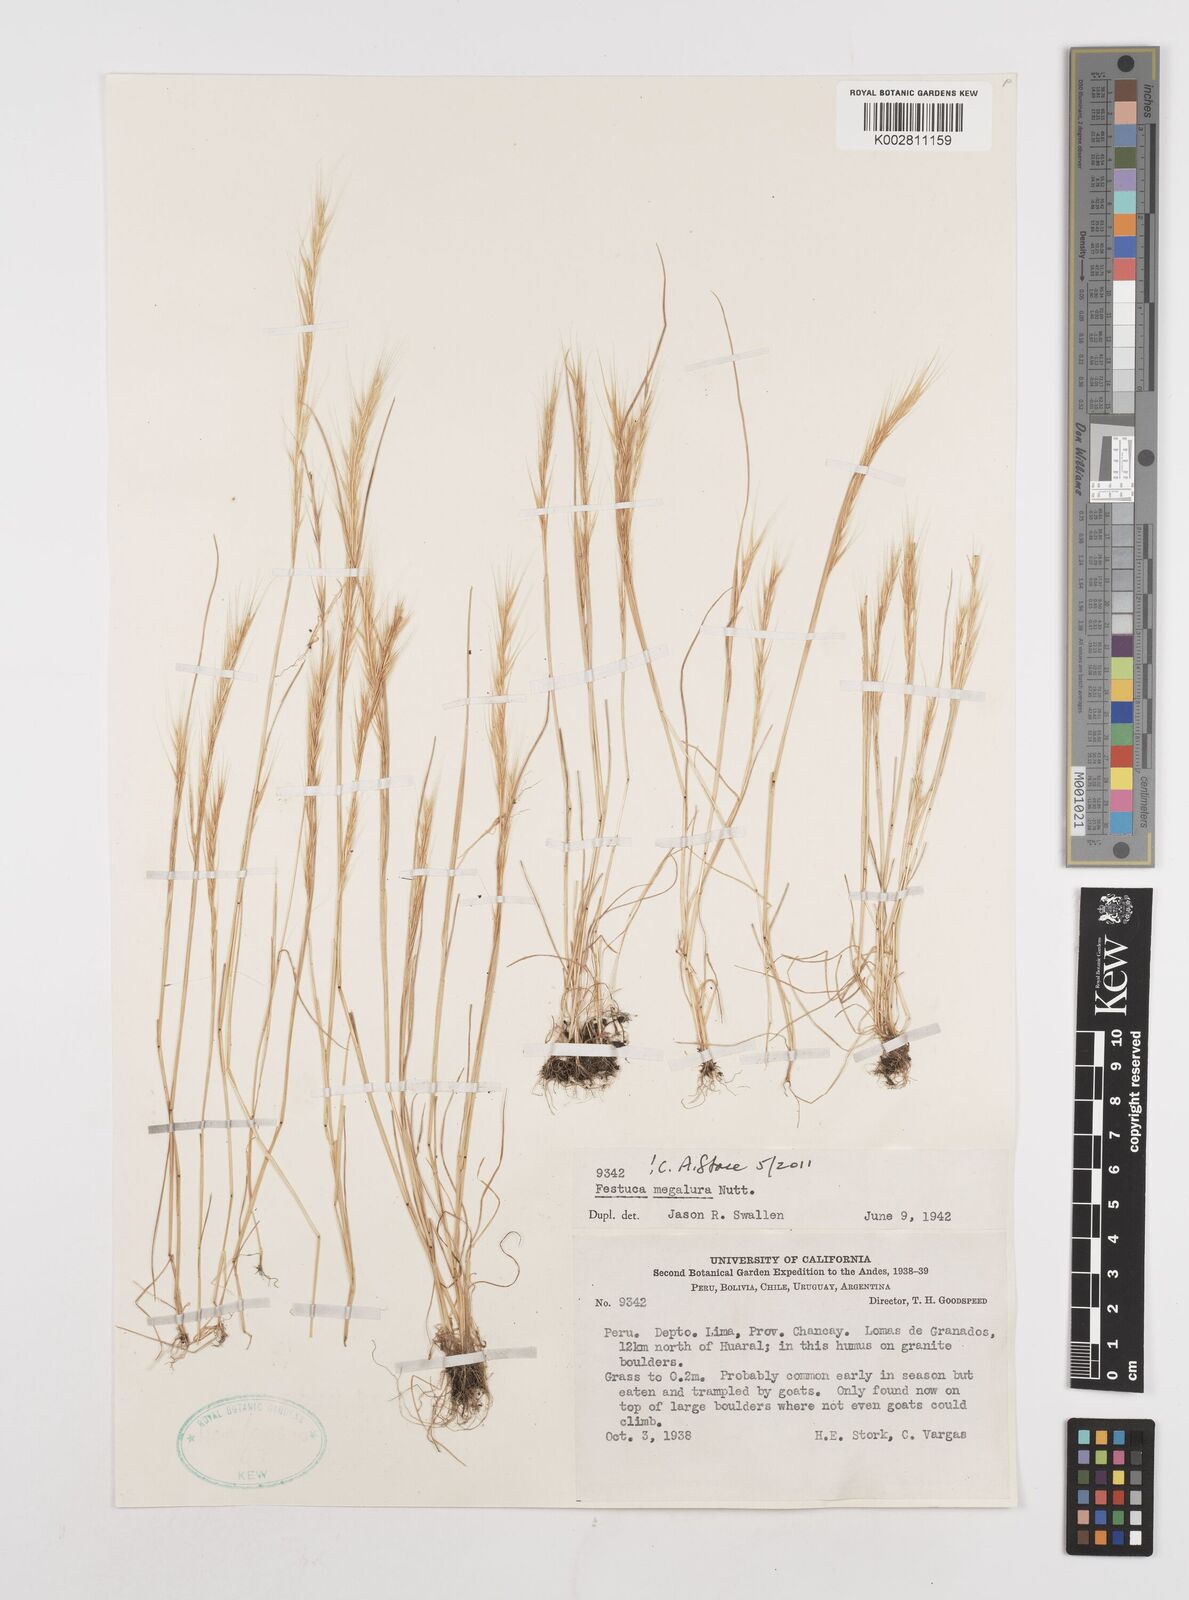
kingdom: Plantae
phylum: Tracheophyta
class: Liliopsida
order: Poales
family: Poaceae
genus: Festuca
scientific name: Festuca myuros
